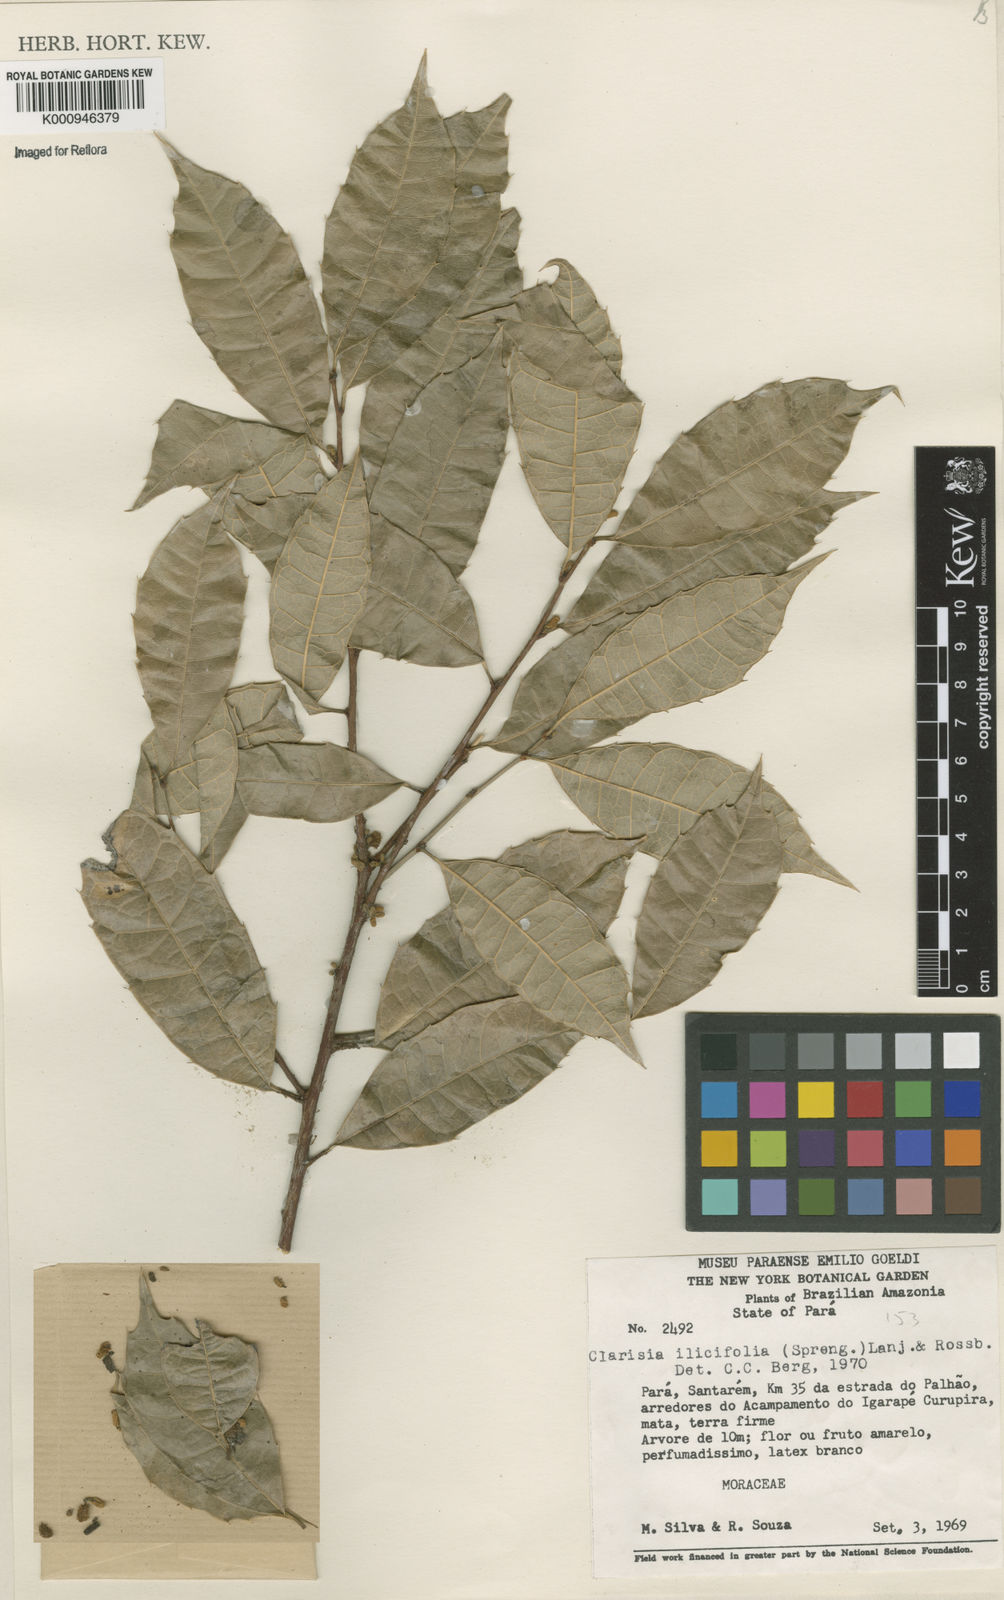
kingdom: Plantae
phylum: Tracheophyta
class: Magnoliopsida
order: Rosales
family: Moraceae
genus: Clarisia
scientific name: Clarisia ilicifolia
